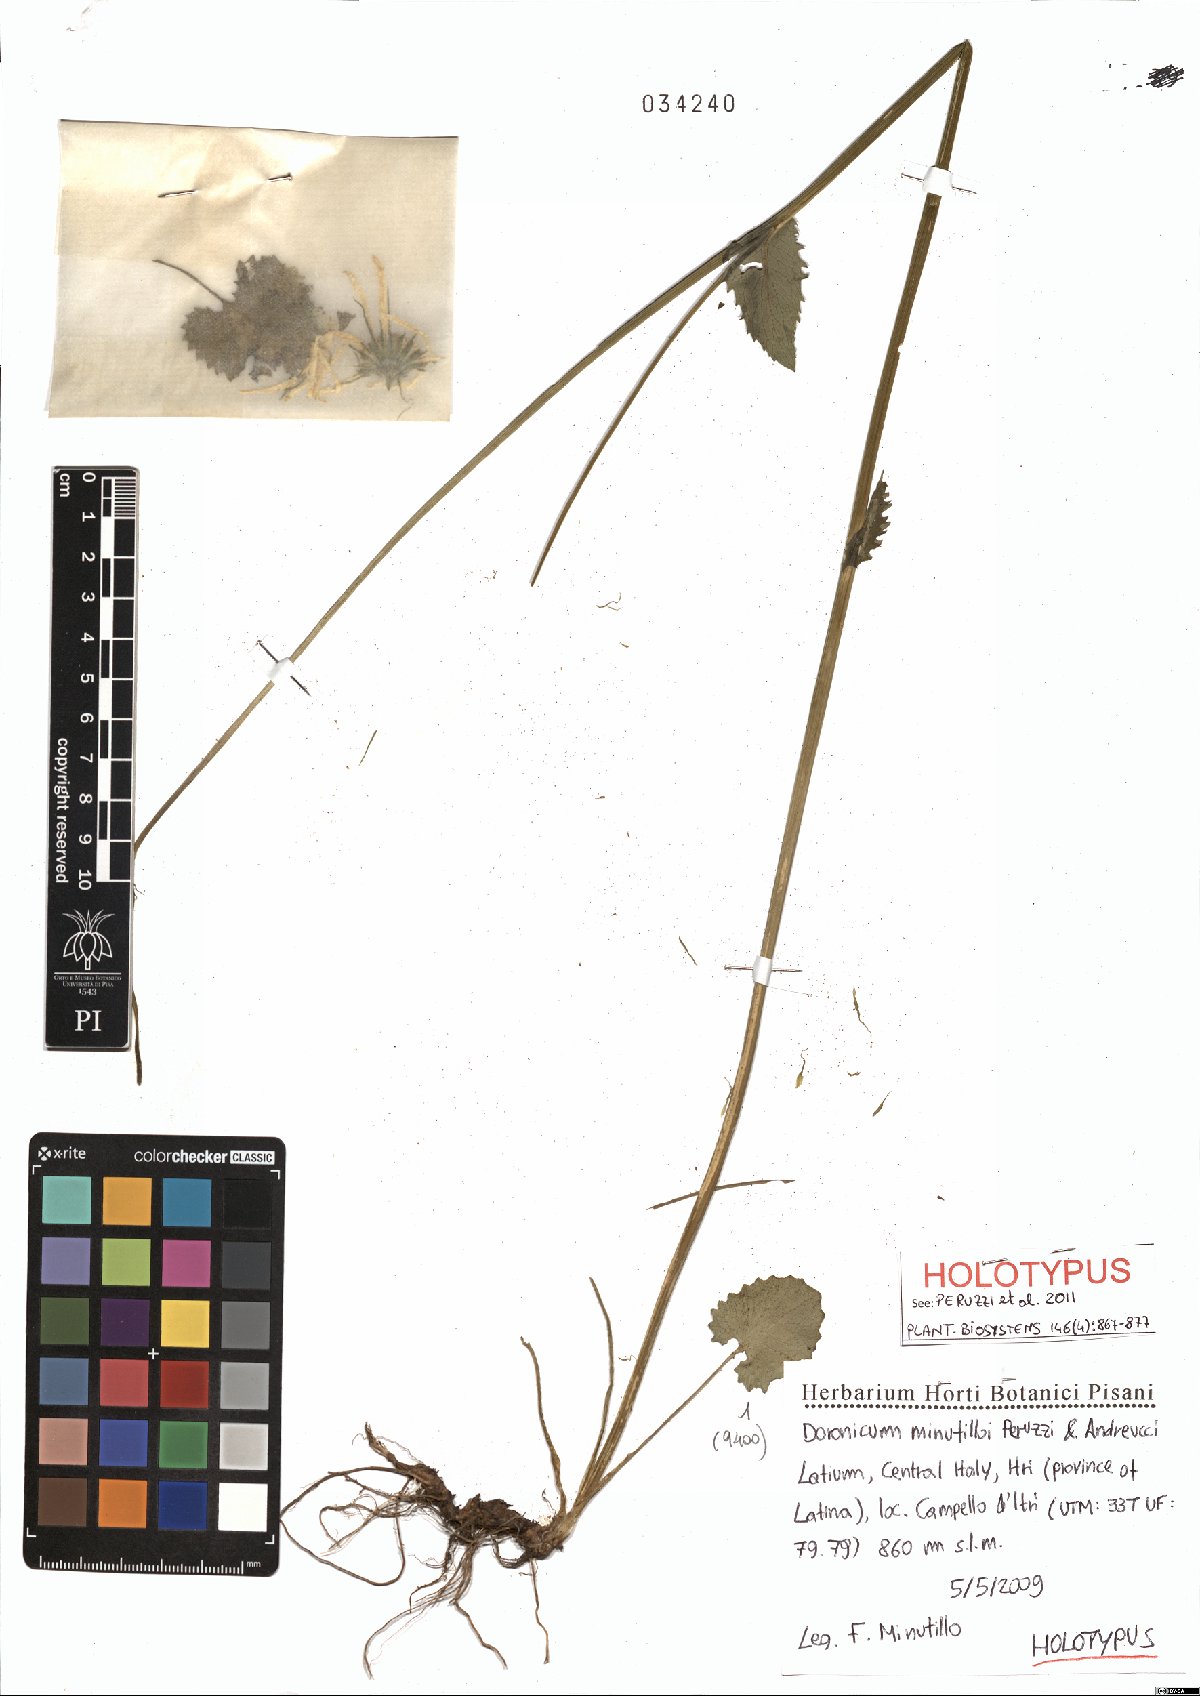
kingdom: Plantae
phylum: Tracheophyta
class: Magnoliopsida
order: Asterales
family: Asteraceae
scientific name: Asteraceae
